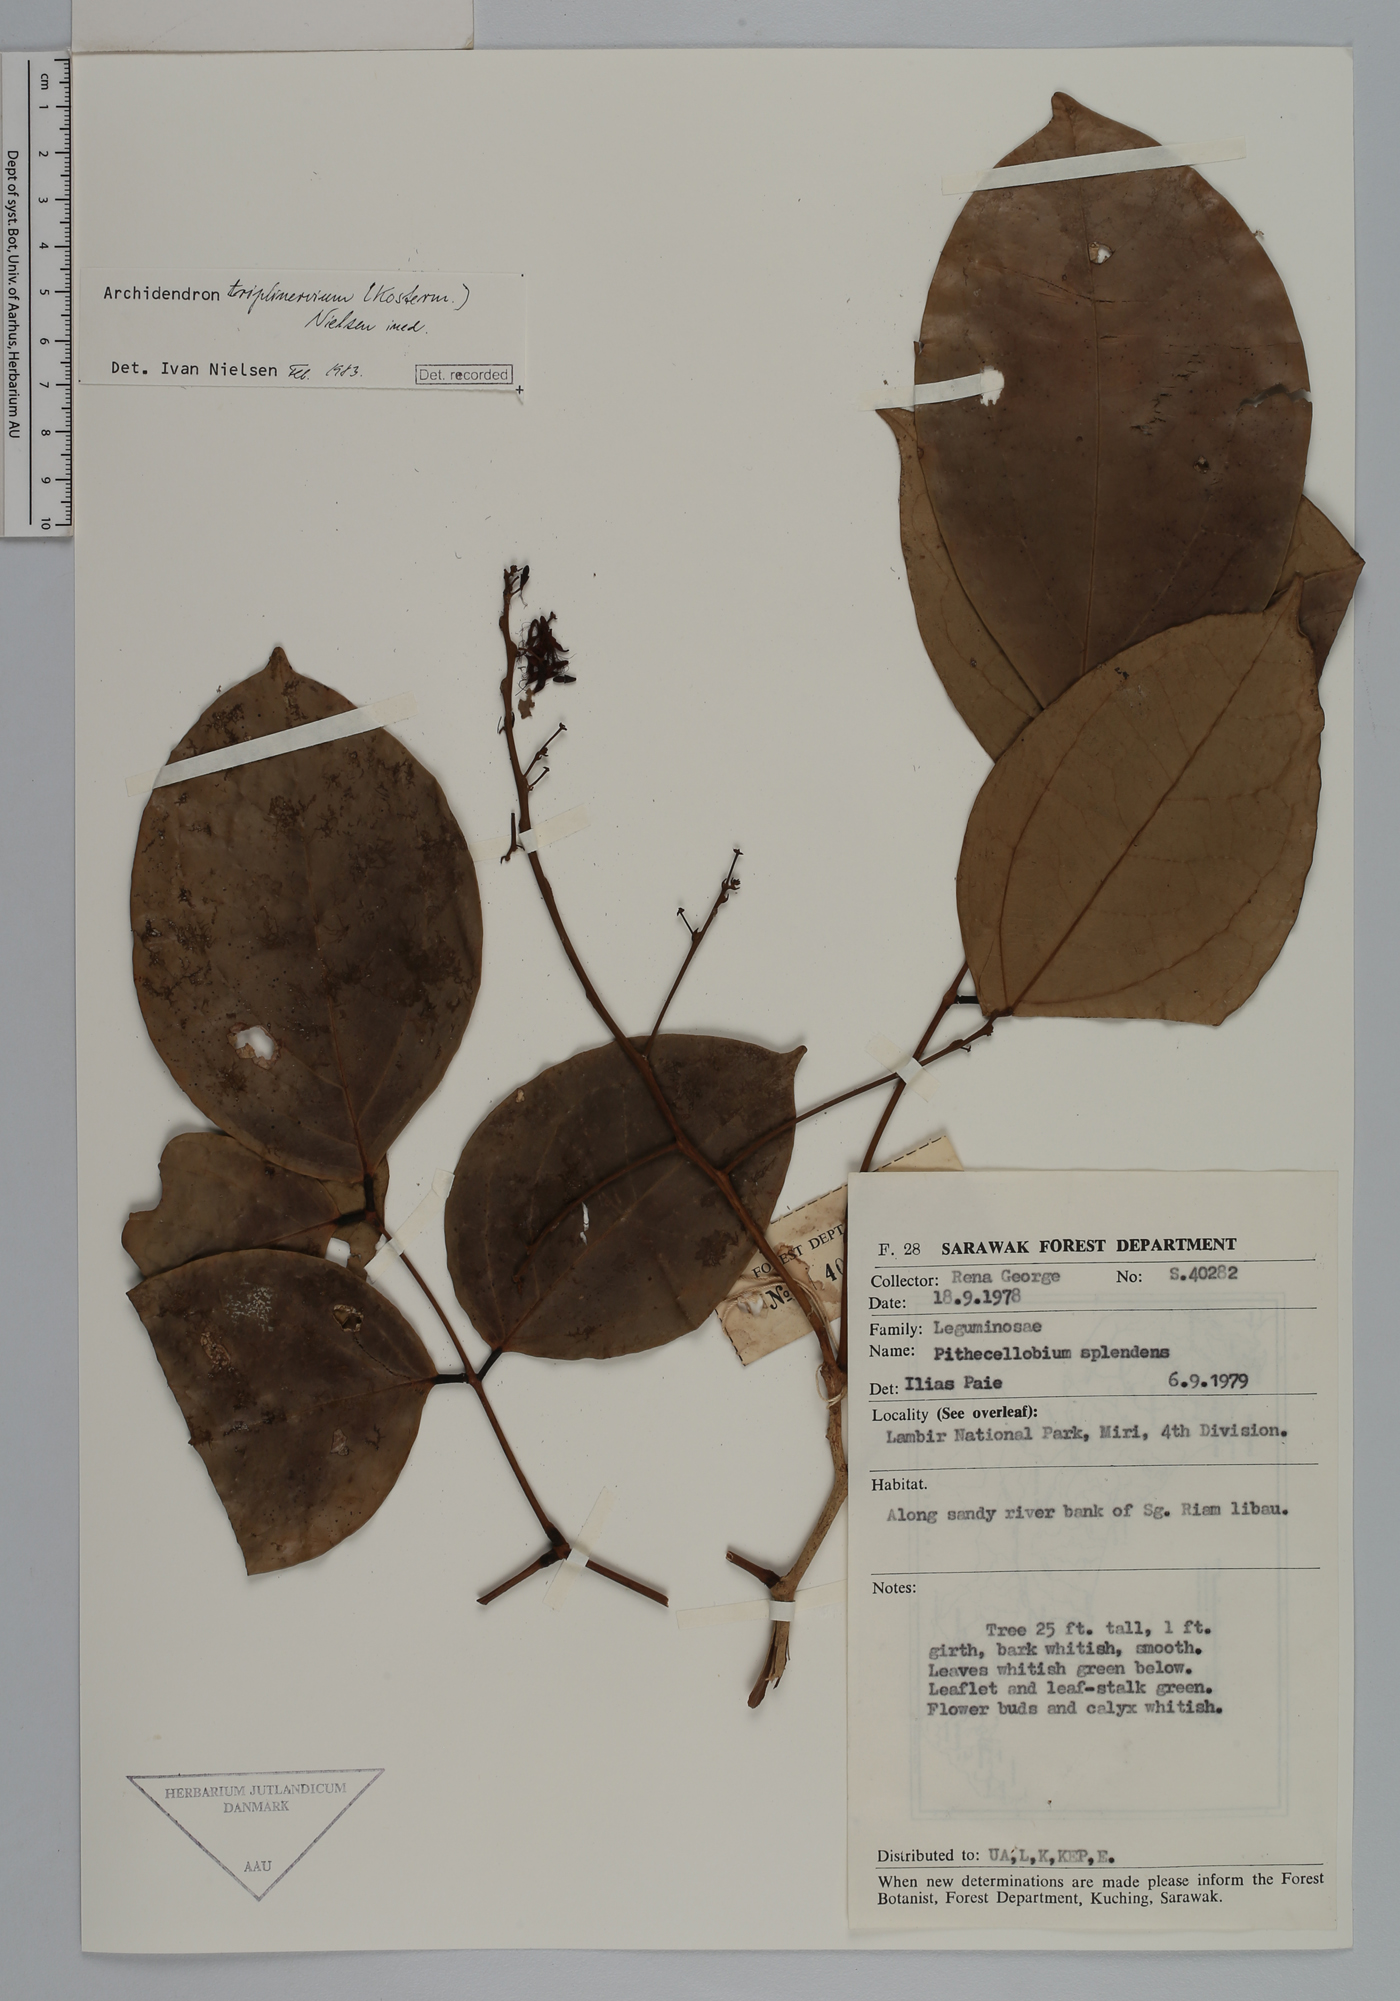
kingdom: Plantae
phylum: Tracheophyta
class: Magnoliopsida
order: Fabales
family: Fabaceae
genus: Archidendron
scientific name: Archidendron triplinervium
